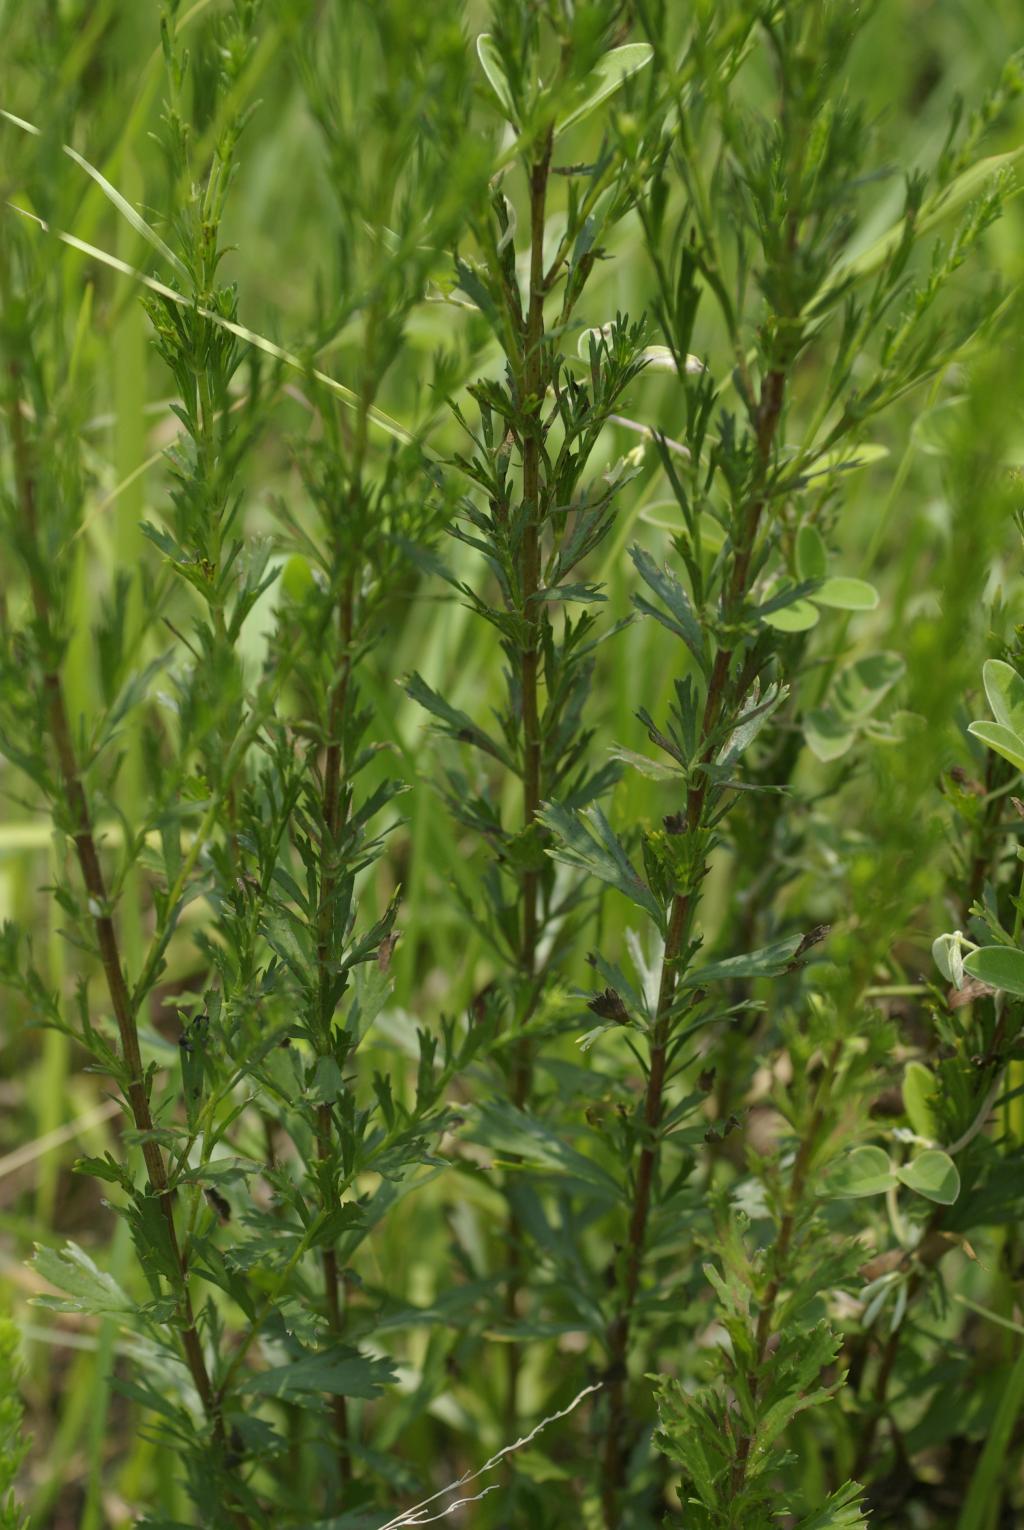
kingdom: Plantae
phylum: Tracheophyta
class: Magnoliopsida
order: Asterales
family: Asteraceae
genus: Artemisia
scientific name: Artemisia japonica
